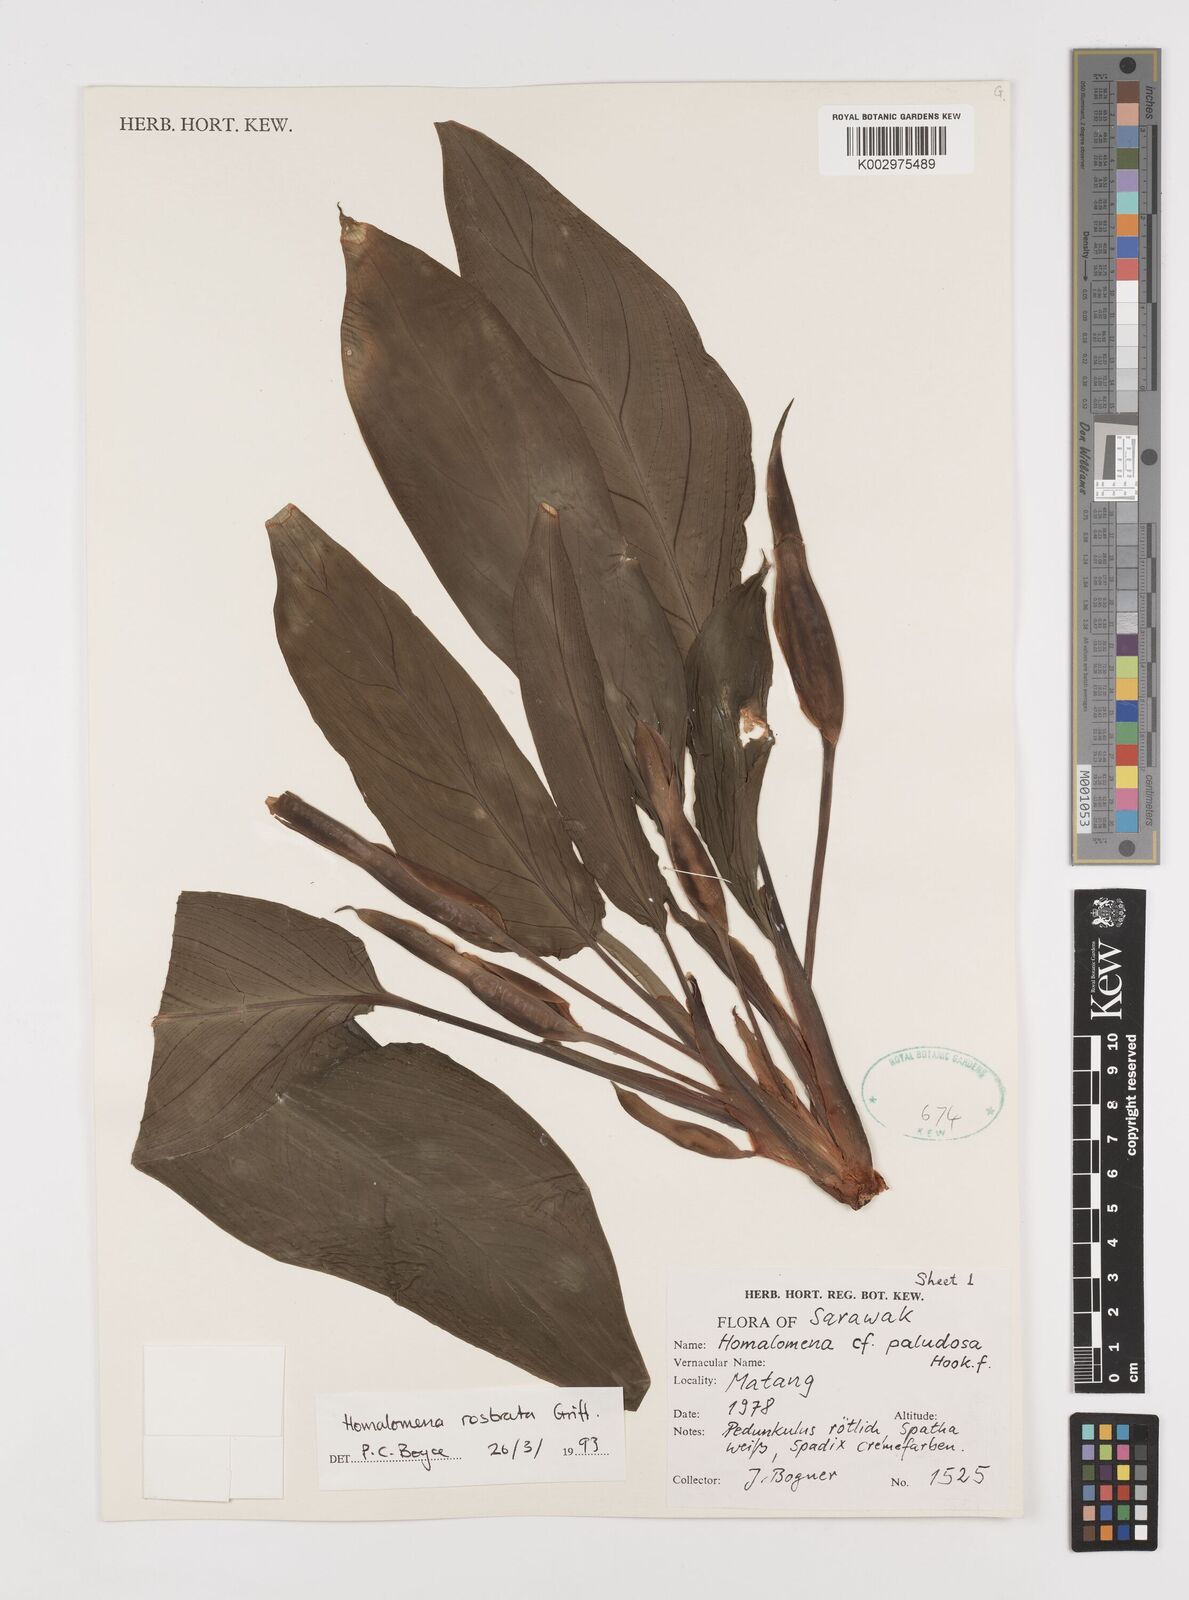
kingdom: Plantae
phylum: Tracheophyta
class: Liliopsida
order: Alismatales
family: Araceae
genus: Homalomena
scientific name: Homalomena rostrata
